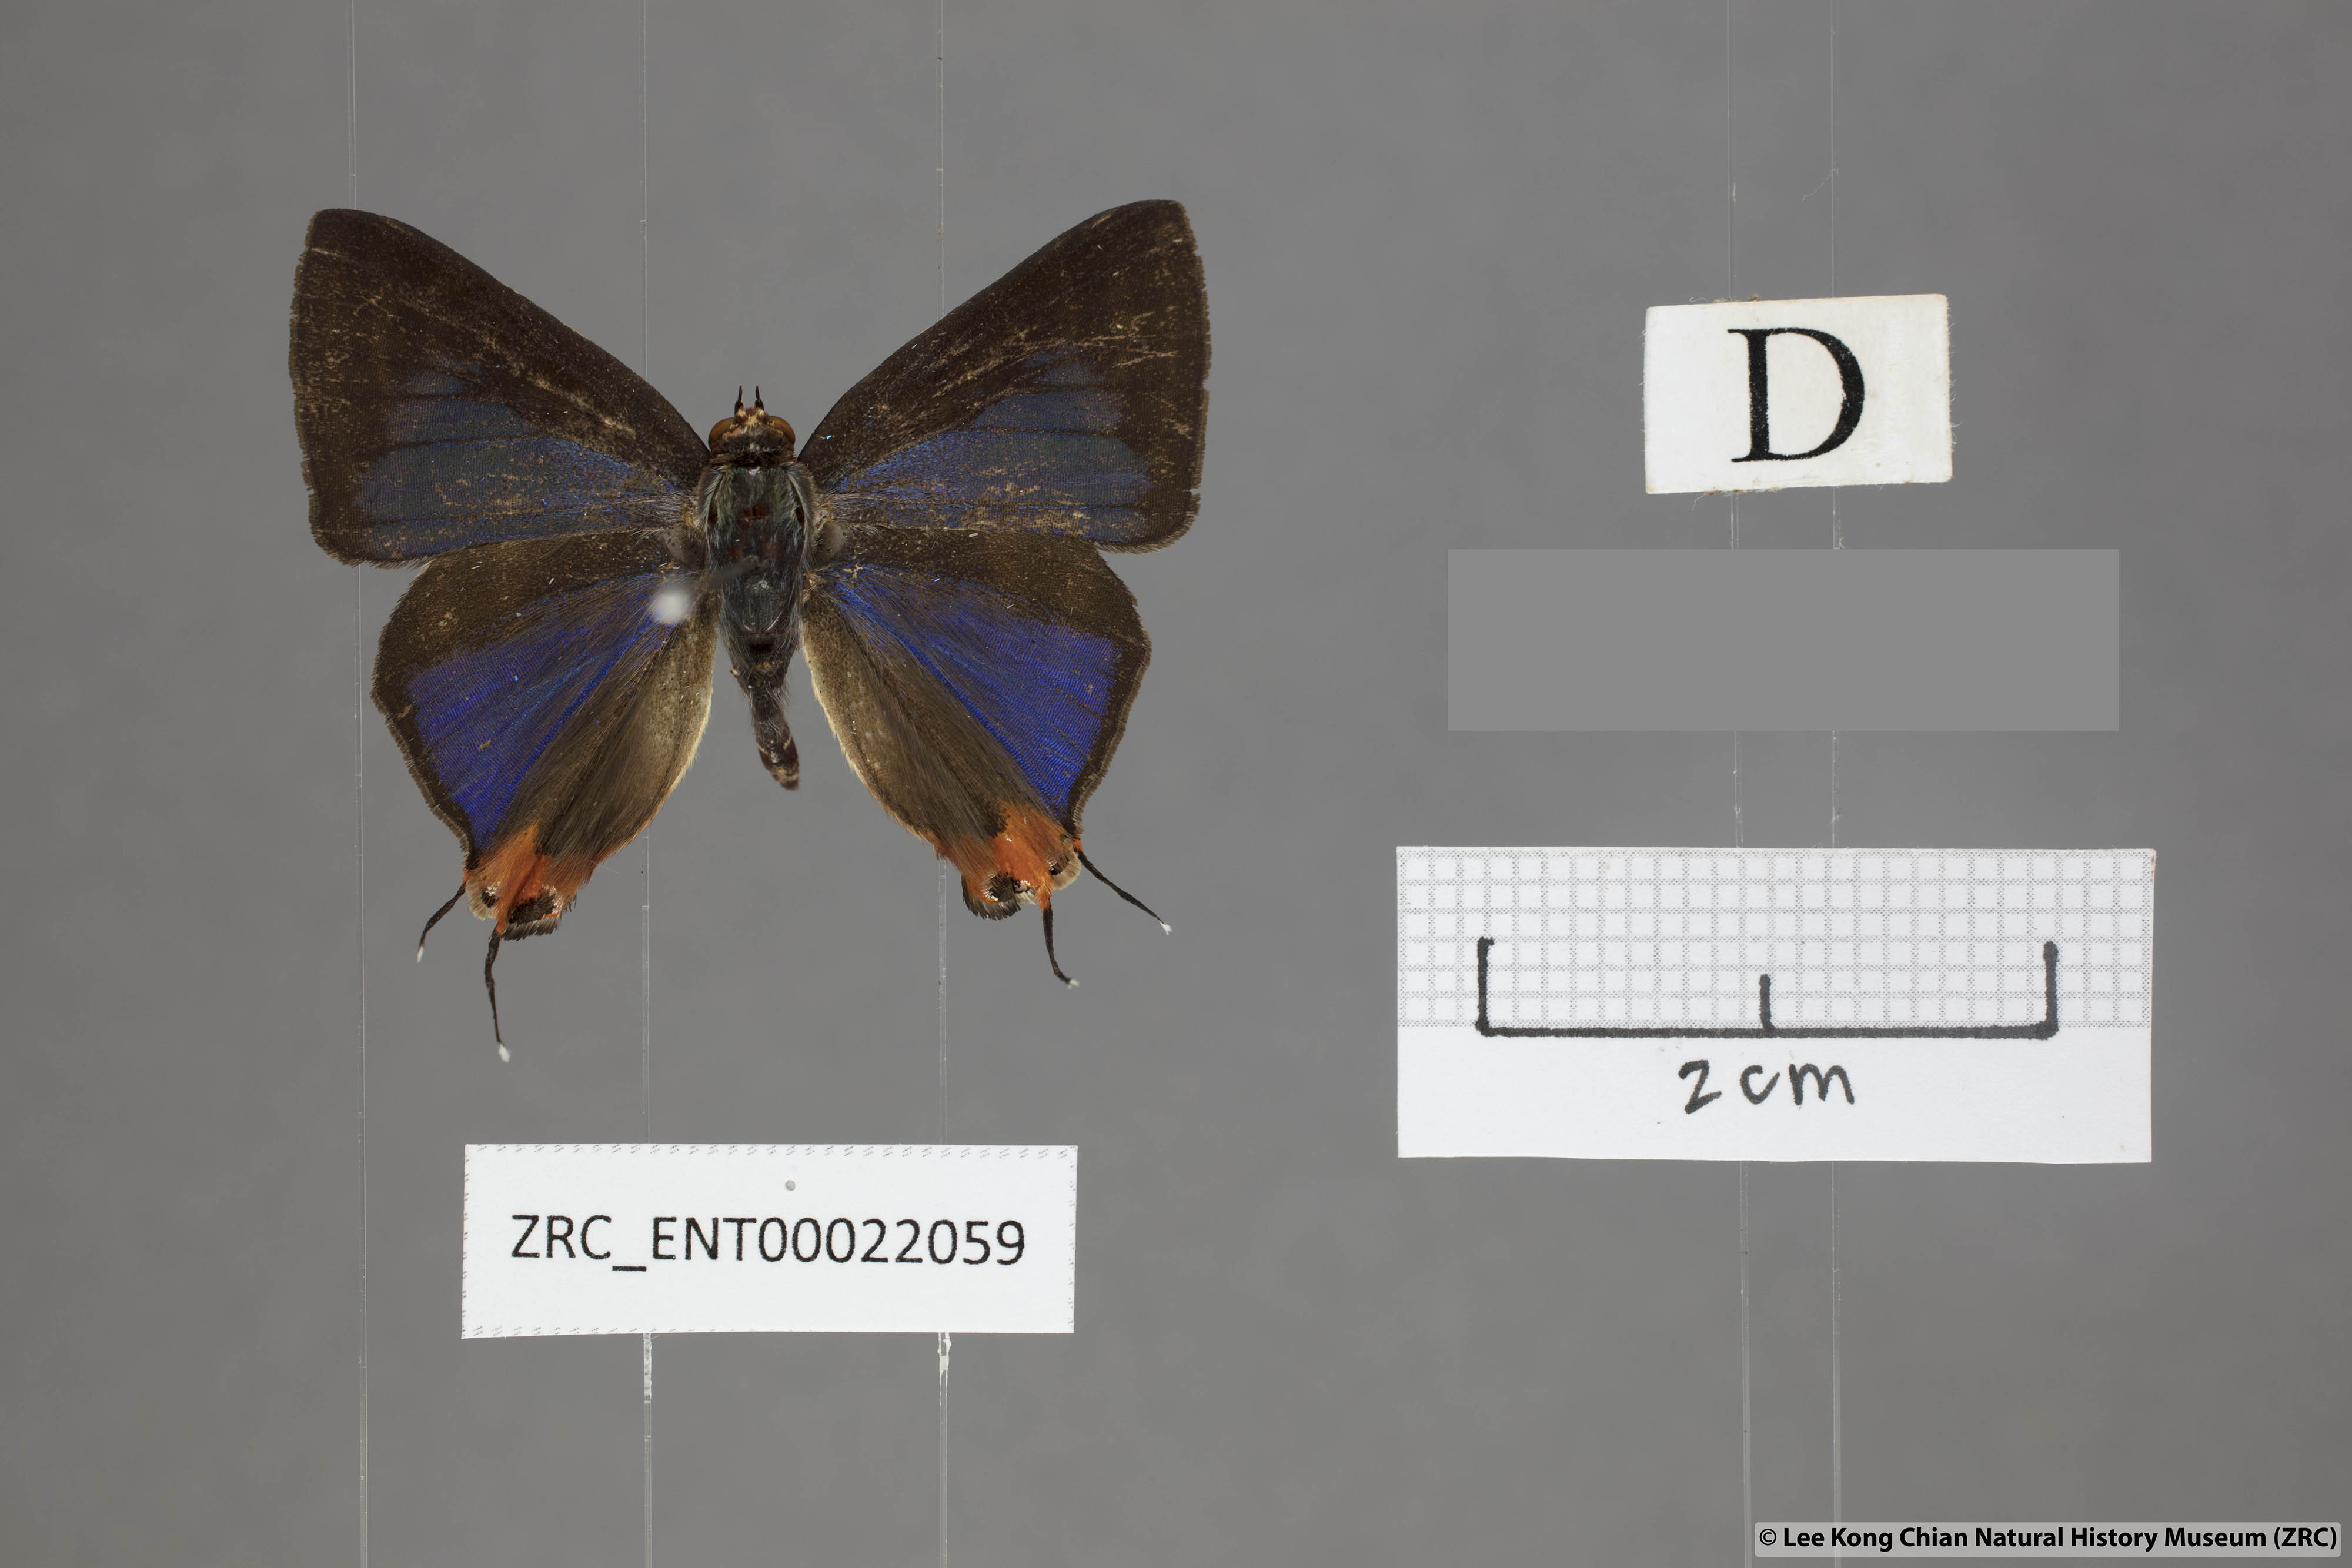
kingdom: Animalia
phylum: Arthropoda
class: Insecta
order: Lepidoptera
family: Lycaenidae
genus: Spindasis
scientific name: Spindasis kutu
